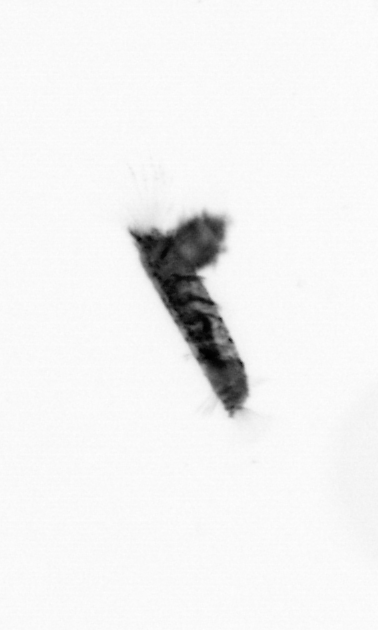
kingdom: Animalia
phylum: Arthropoda
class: Copepoda
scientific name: Copepoda
